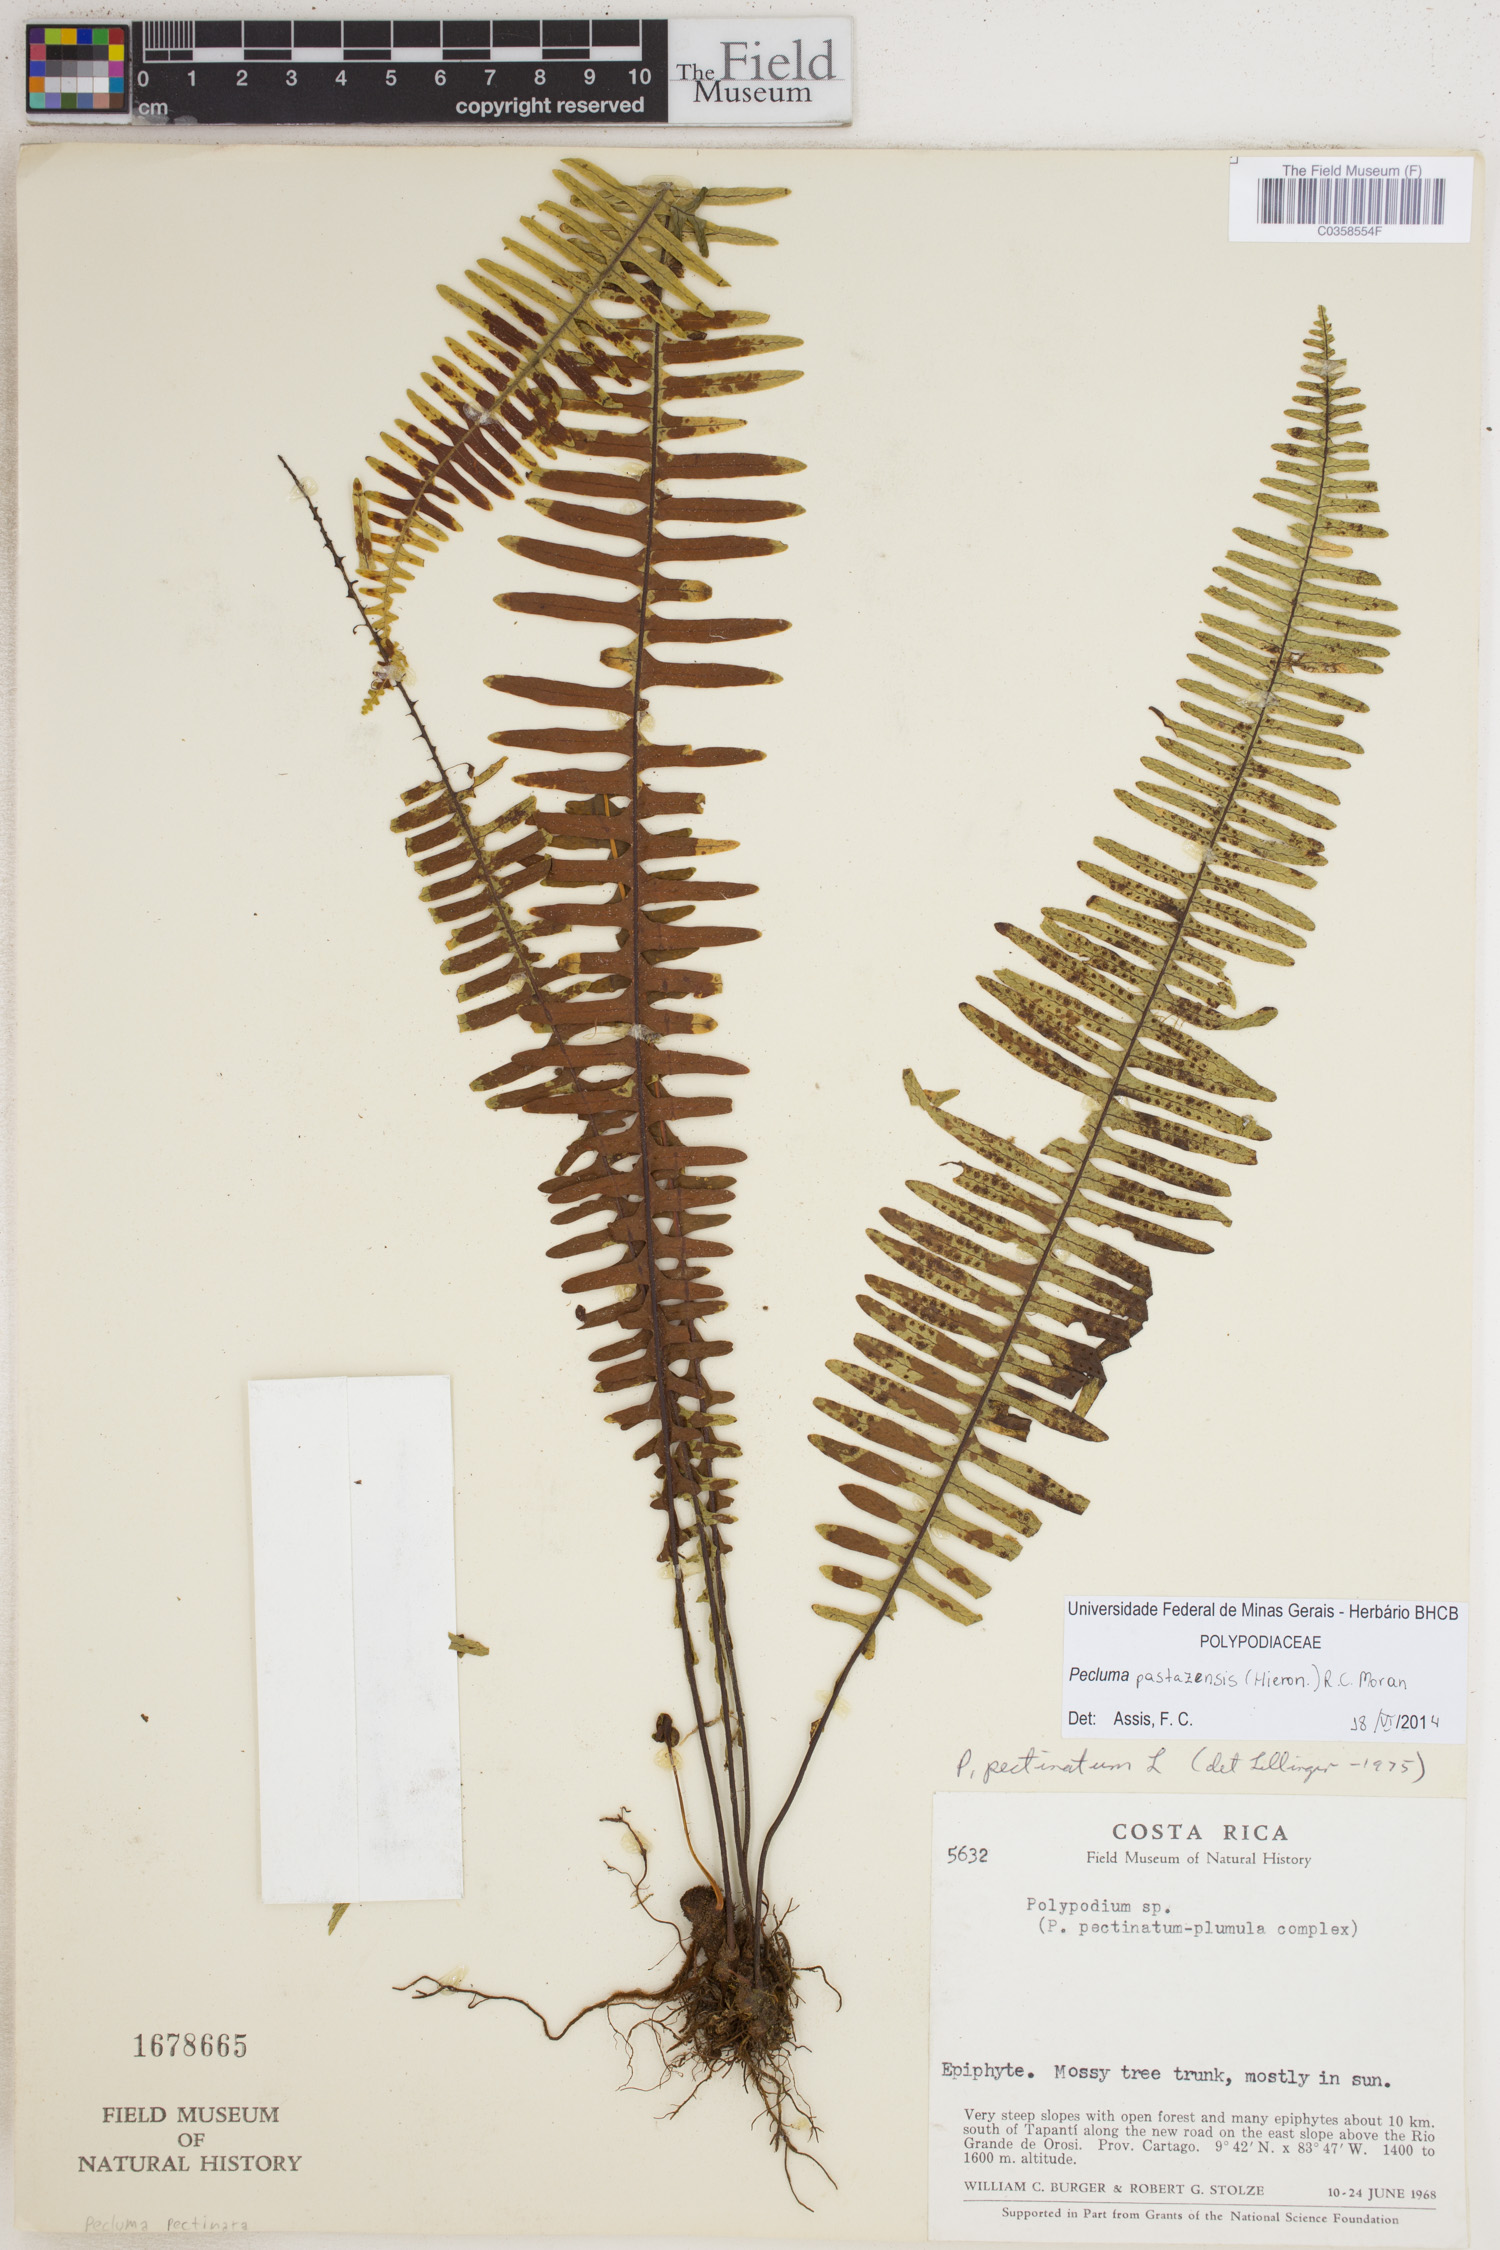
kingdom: Plantae
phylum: Tracheophyta
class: Polypodiopsida
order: Polypodiales
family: Polypodiaceae
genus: Pecluma
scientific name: Pecluma pastazensis
